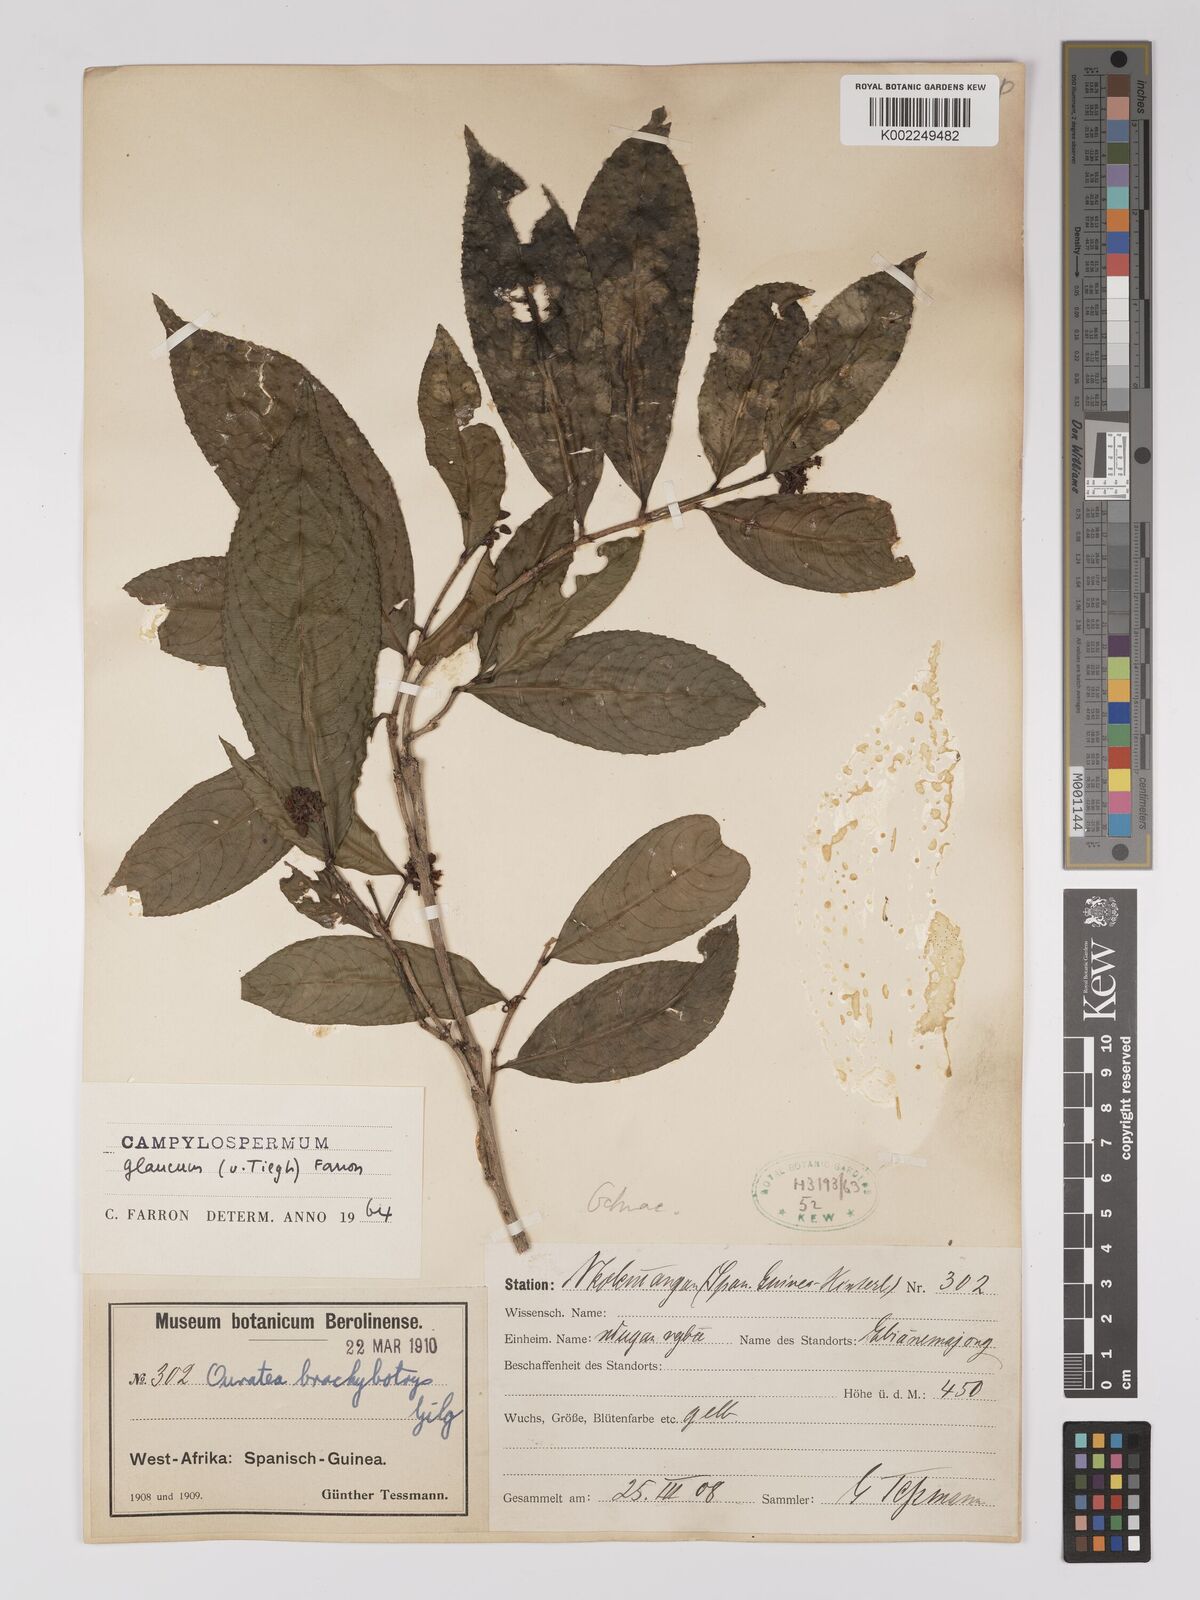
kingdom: Plantae
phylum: Tracheophyta
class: Magnoliopsida
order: Malpighiales
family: Ochnaceae
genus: Campylospermum
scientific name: Campylospermum glaucum
